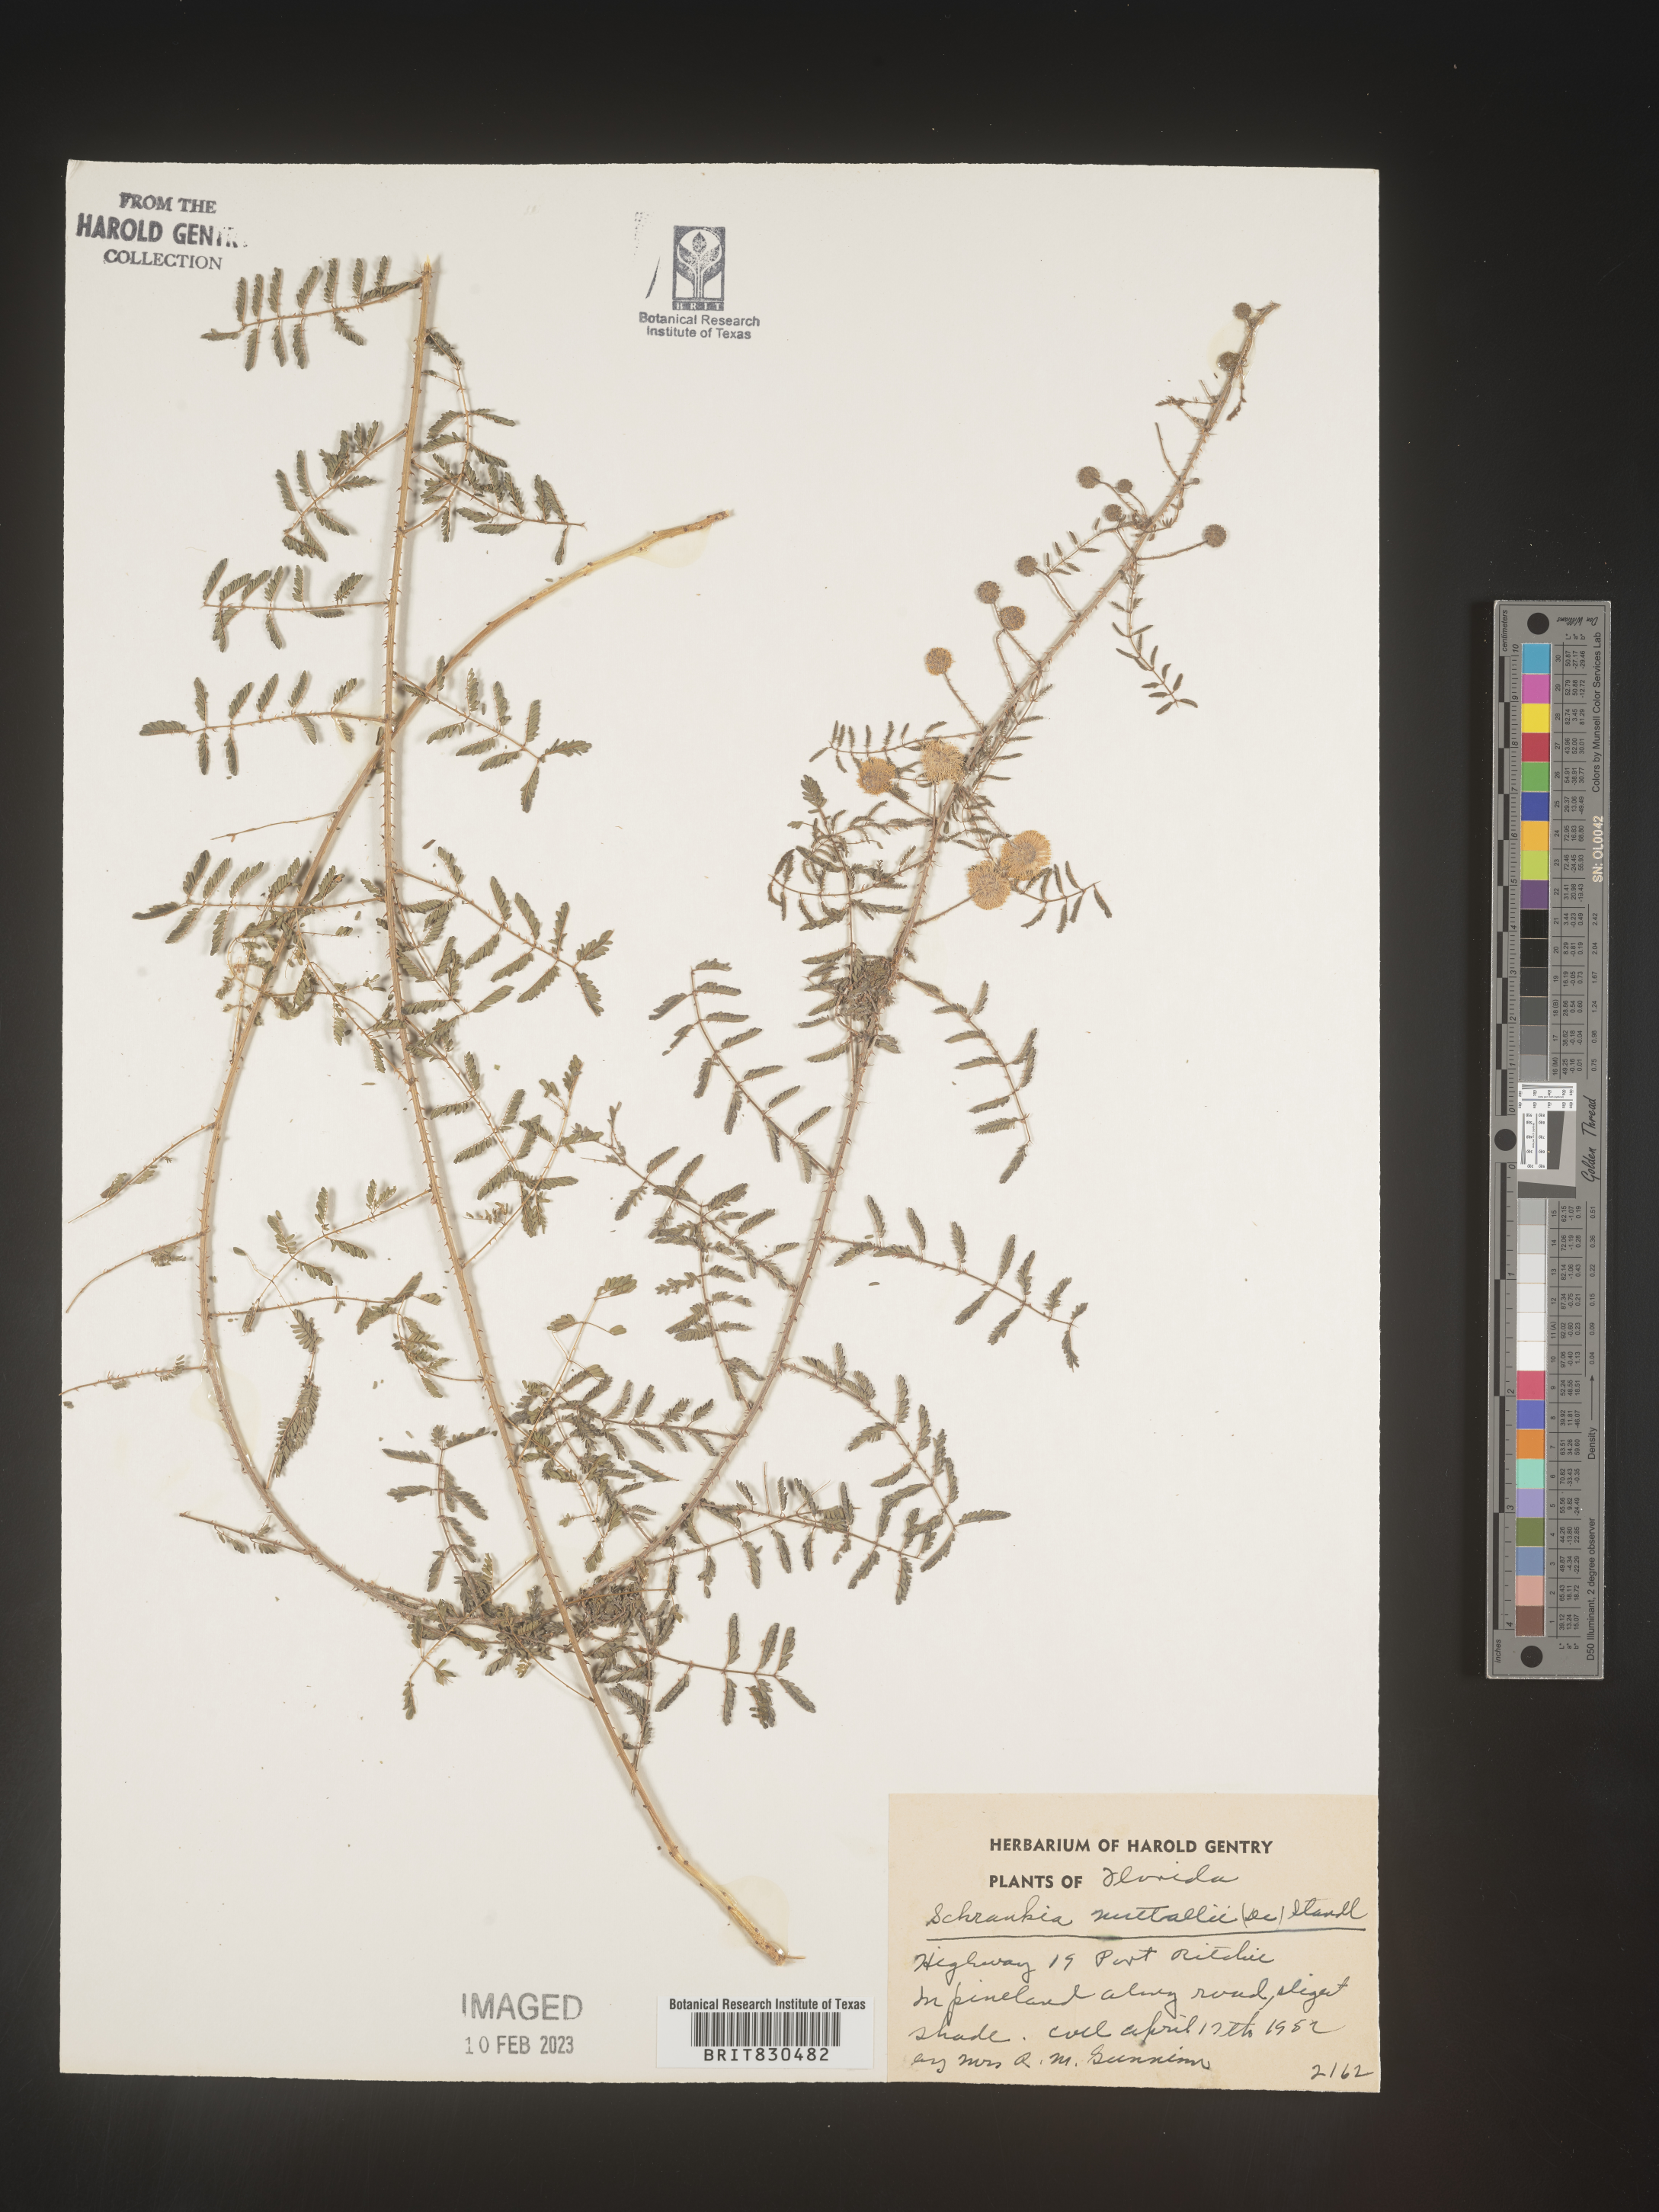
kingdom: Plantae
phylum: Tracheophyta
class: Magnoliopsida
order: Fabales
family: Fabaceae
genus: Mimosa
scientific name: Mimosa quadrivalvis
